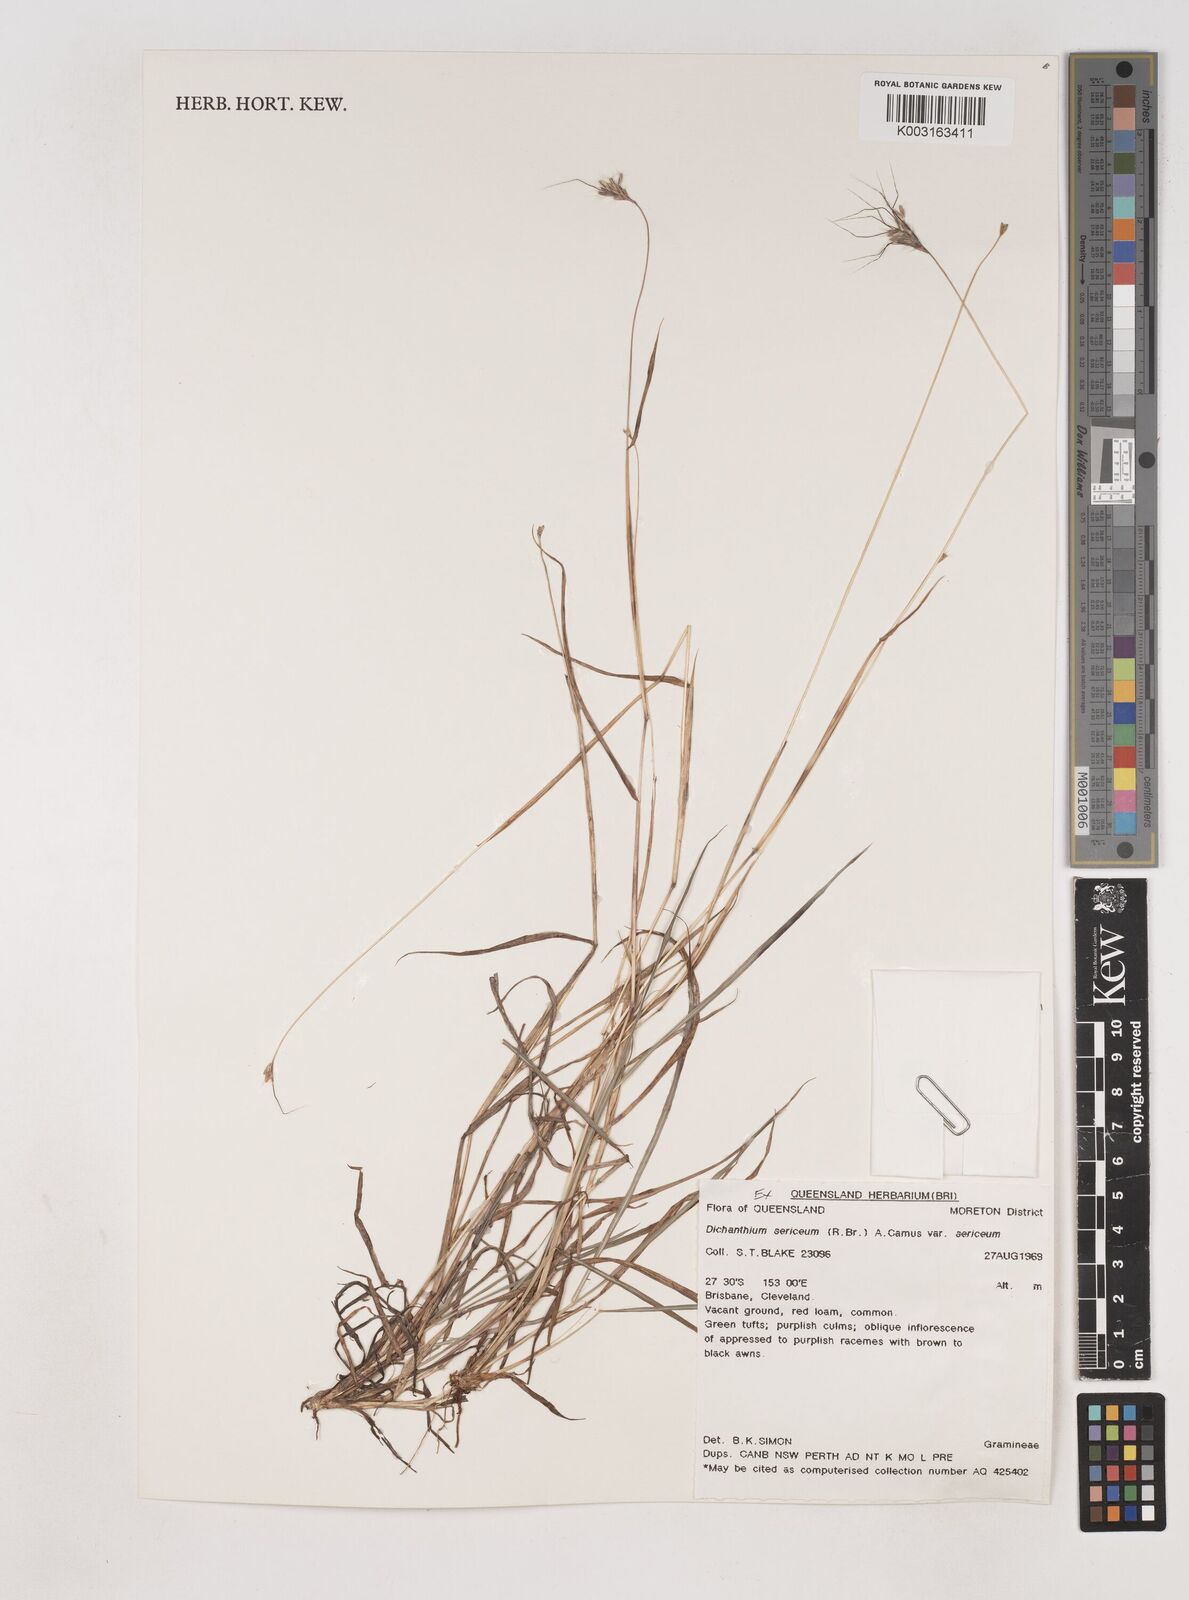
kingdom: Plantae
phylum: Tracheophyta
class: Liliopsida
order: Poales
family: Poaceae
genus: Dichanthium
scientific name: Dichanthium sericeum
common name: Silky bluestem
